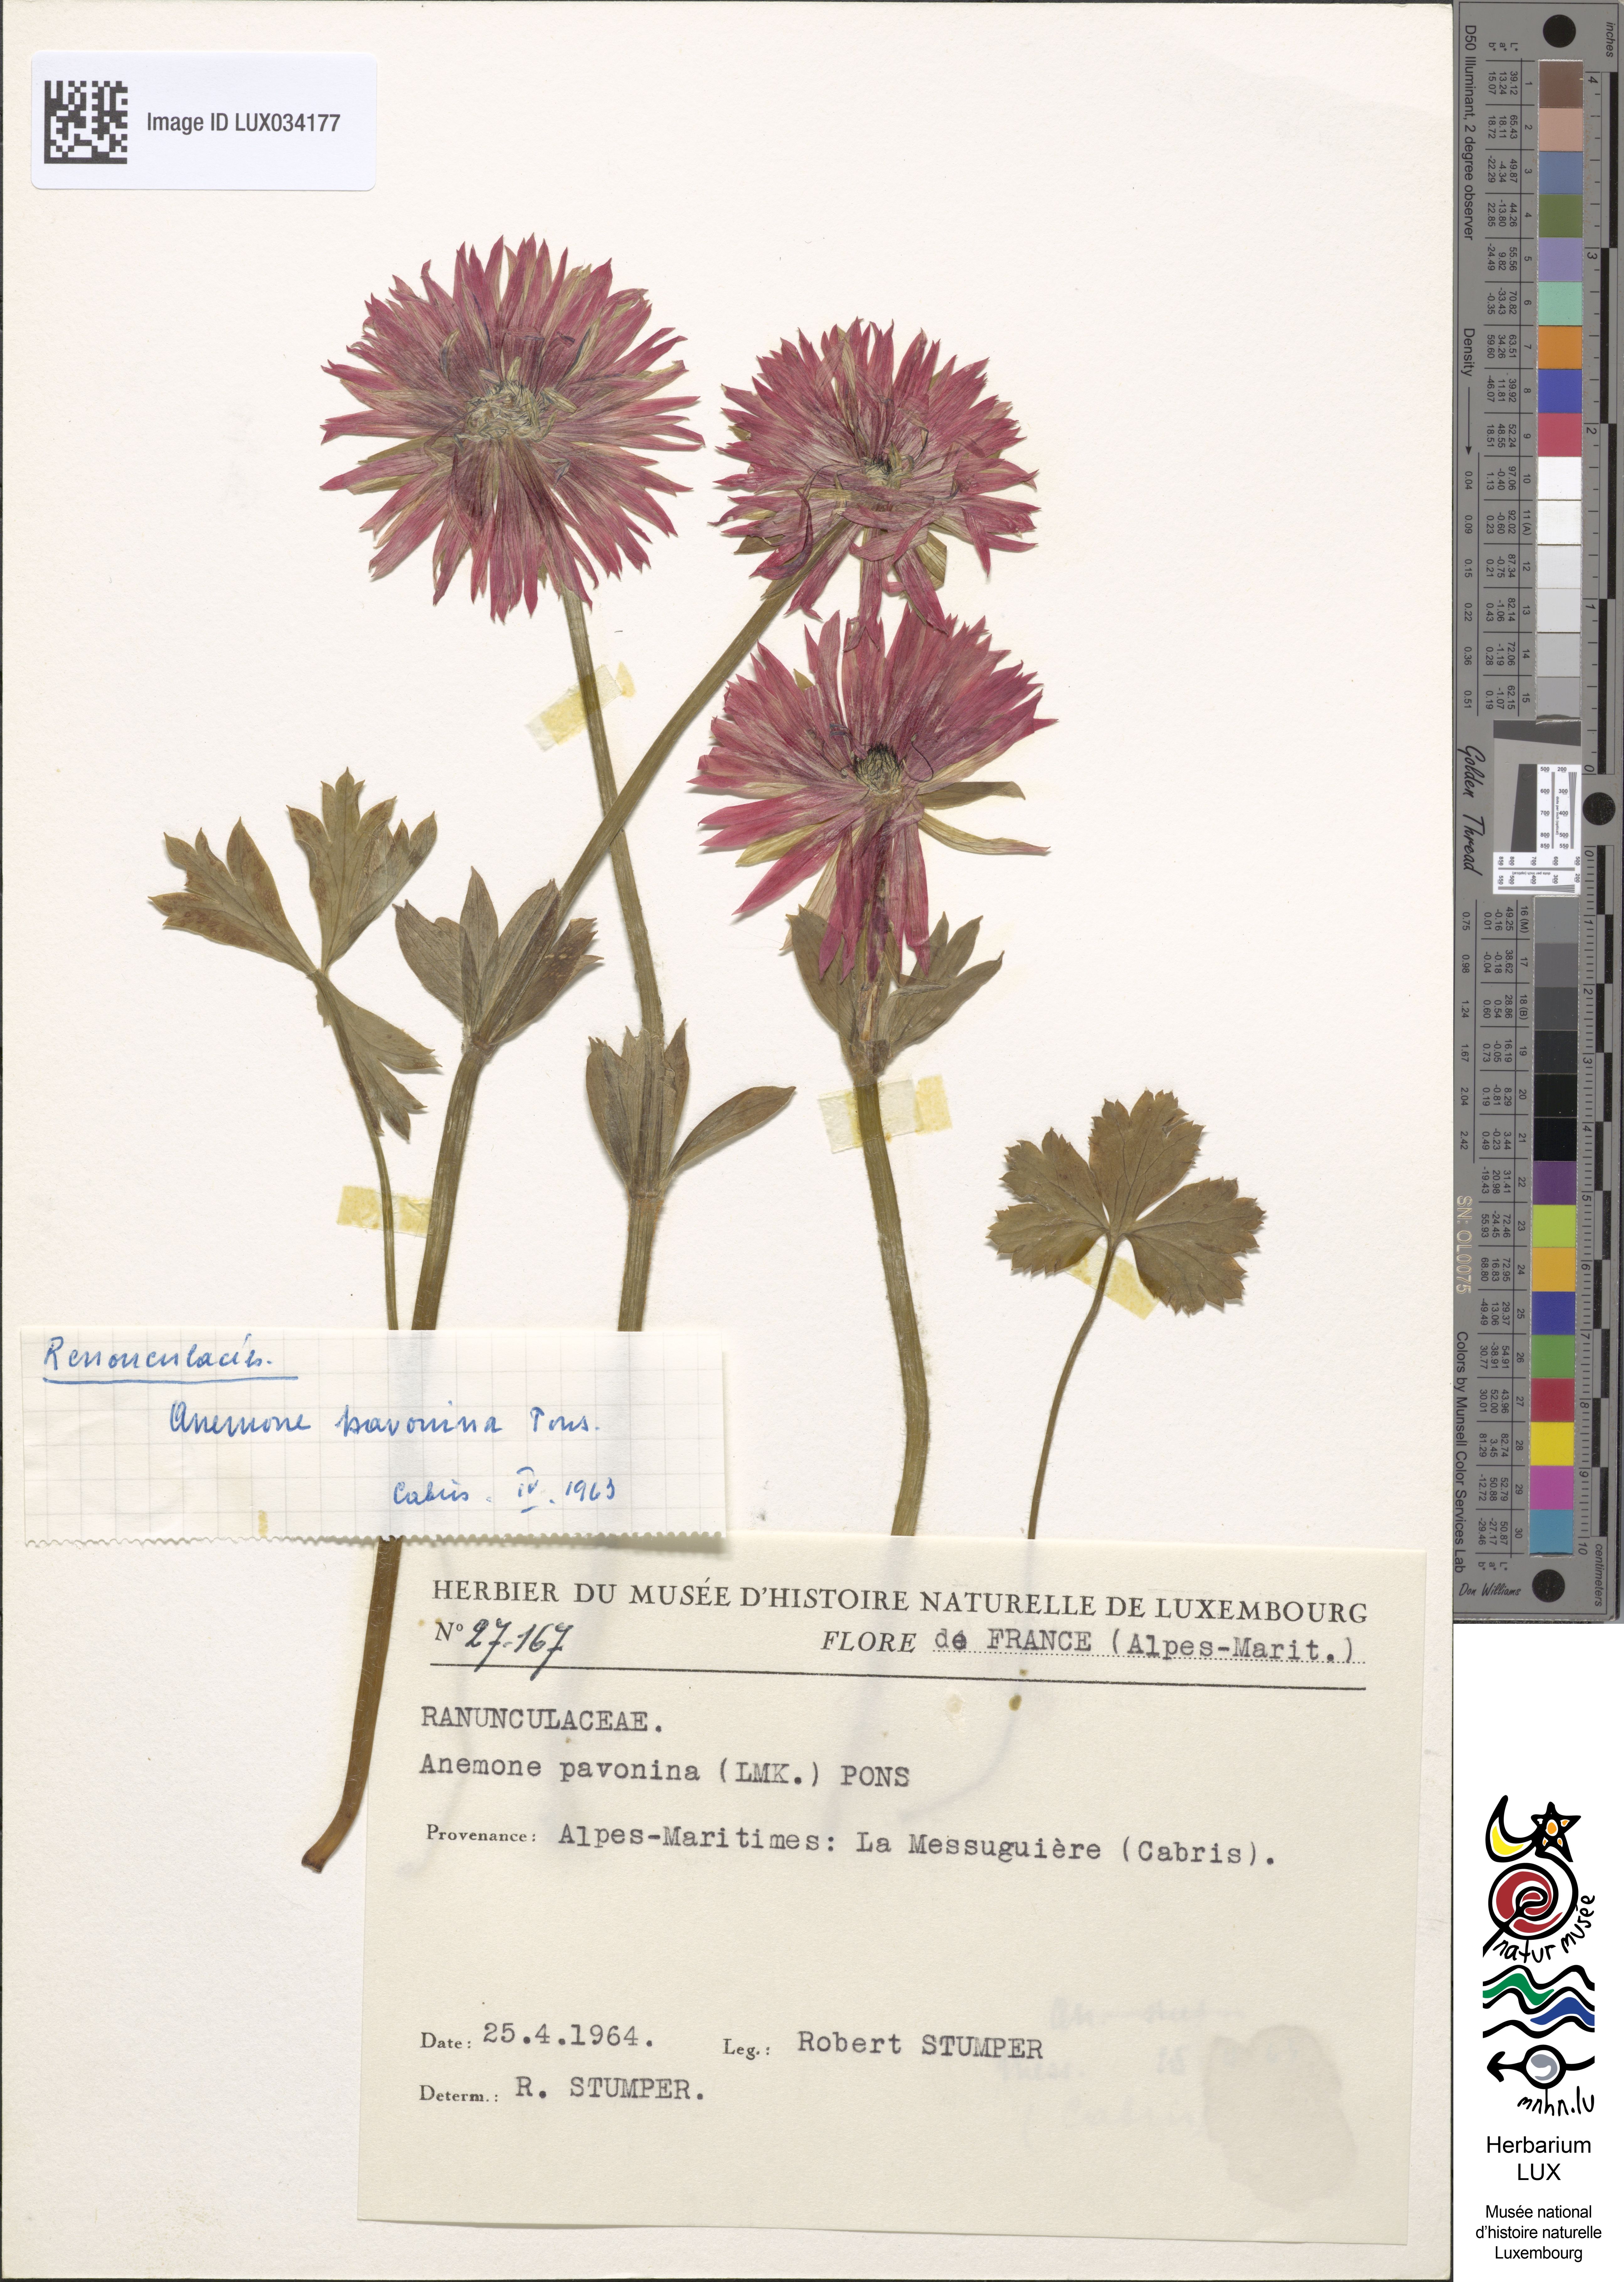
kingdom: Plantae
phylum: Tracheophyta
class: Magnoliopsida
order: Ranunculales
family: Ranunculaceae
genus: Anemone
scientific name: Anemone pavonina
